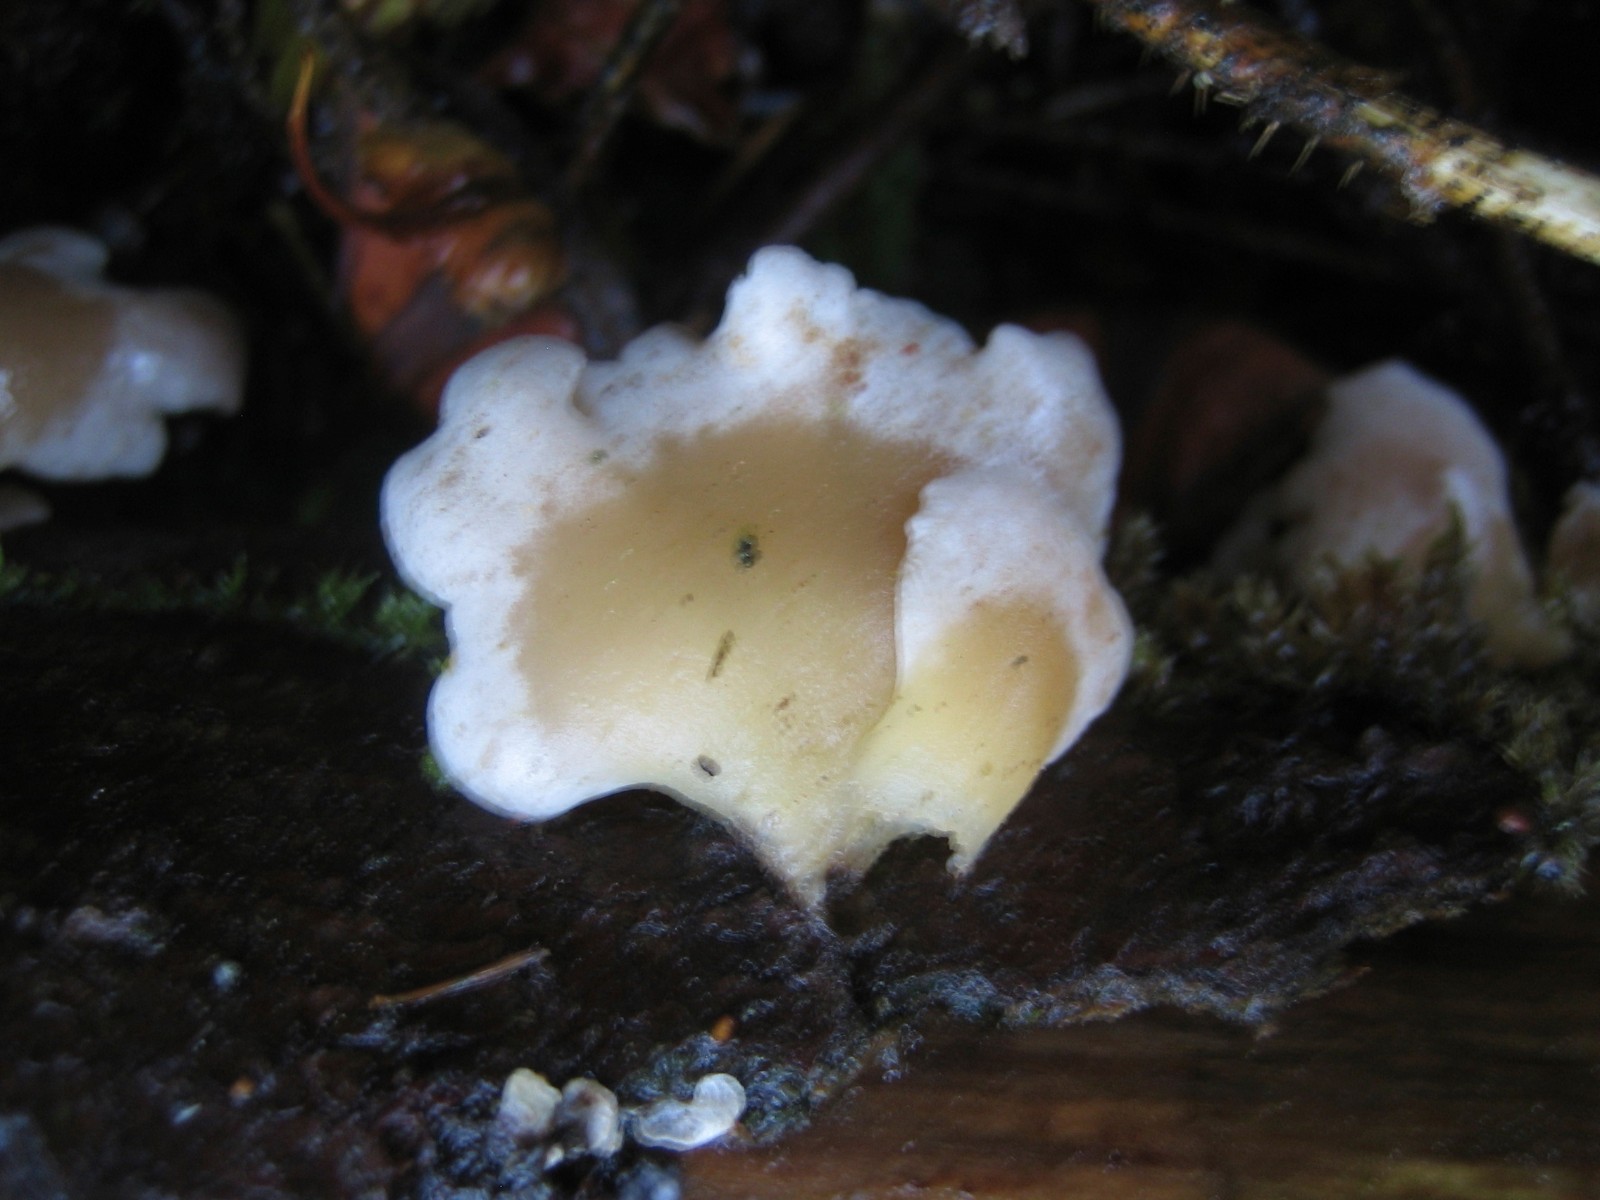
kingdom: Fungi
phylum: Basidiomycota
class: Agaricomycetes
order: Agaricales
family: Mycenaceae
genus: Panellus
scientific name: Panellus mitis
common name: mild epaulethat
